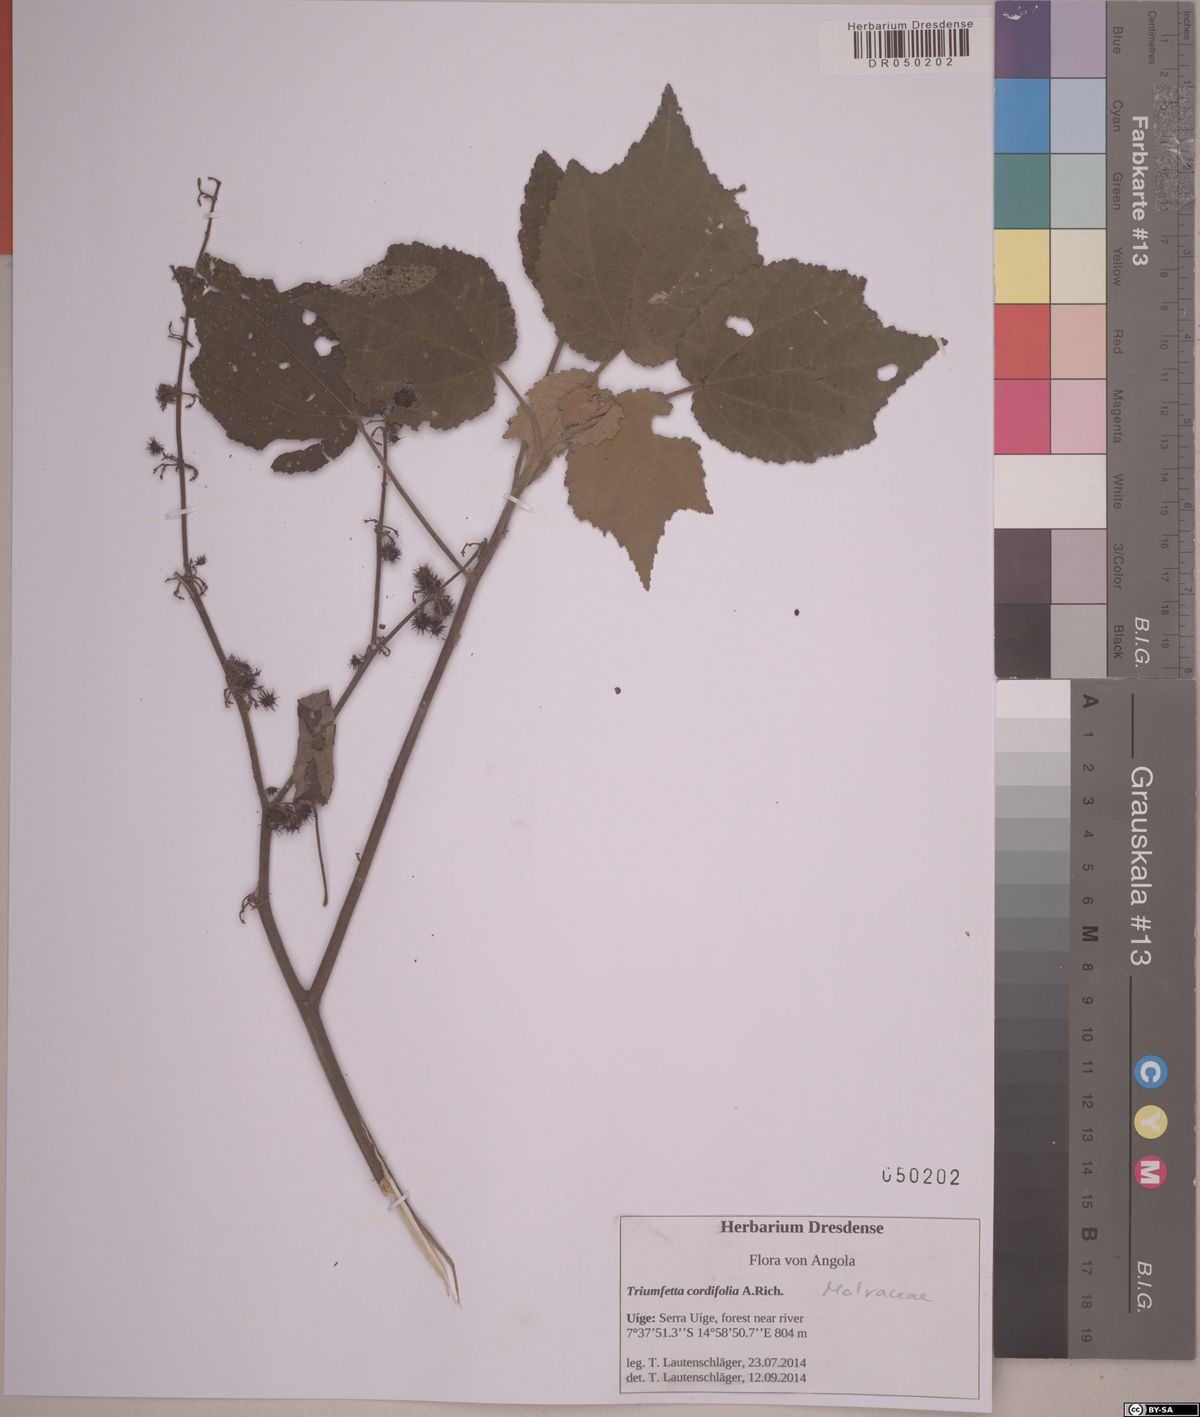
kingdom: Plantae
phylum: Tracheophyta
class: Magnoliopsida
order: Malvales
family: Malvaceae
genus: Triumfetta
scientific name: Triumfetta cordifolia
